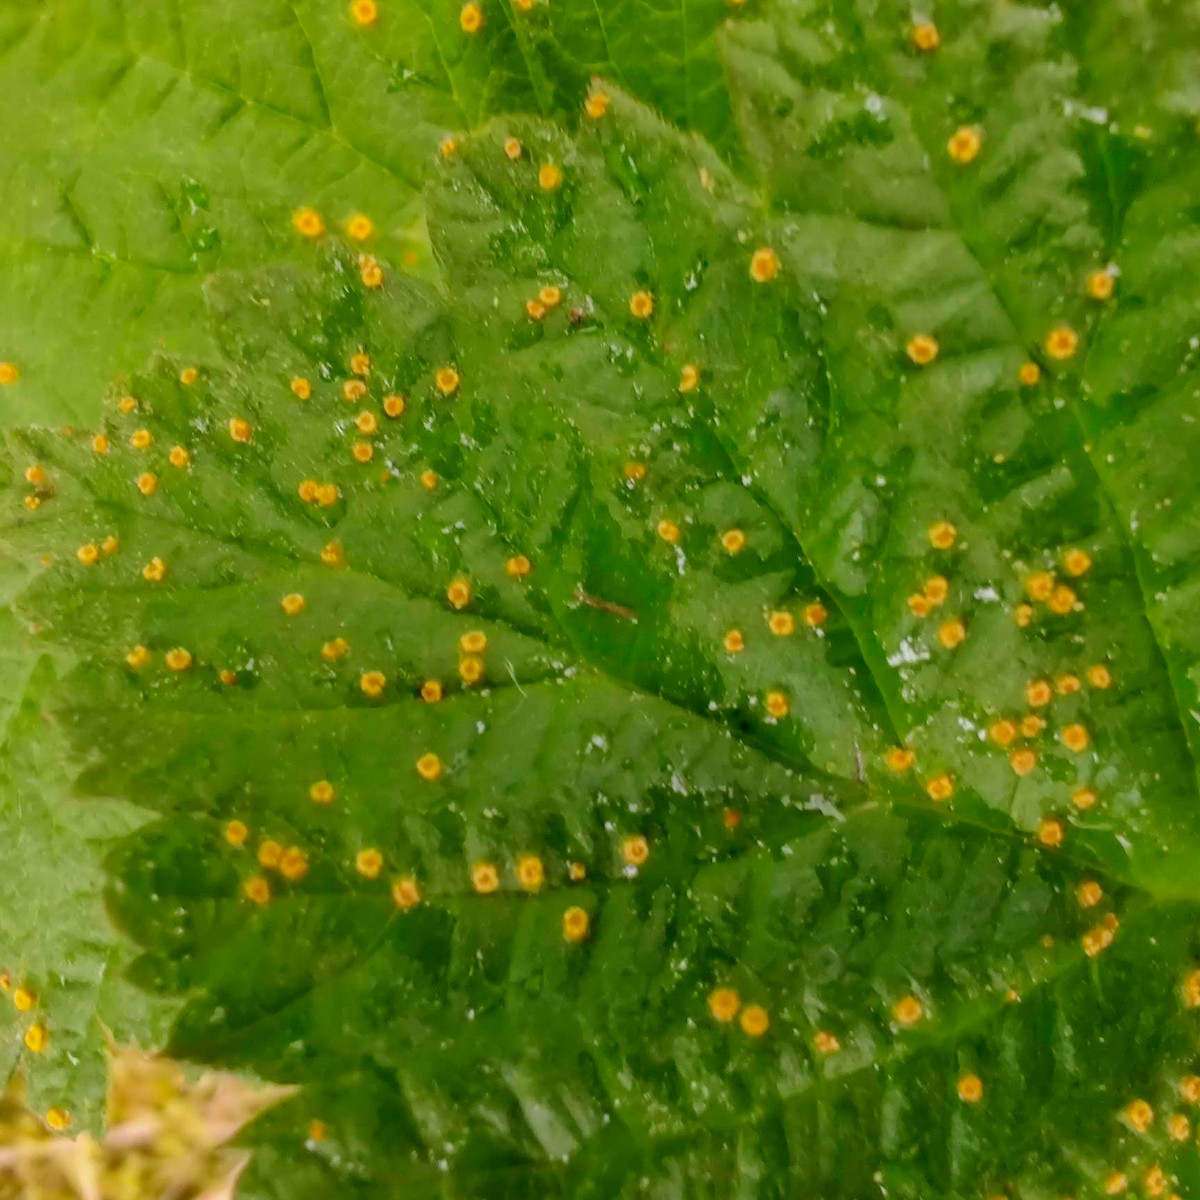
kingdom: Fungi
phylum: Basidiomycota
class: Pucciniomycetes
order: Pucciniales
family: Phragmidiaceae
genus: Phragmidium
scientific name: Phragmidium rubi-idaei
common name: hindbær-flercellerust
